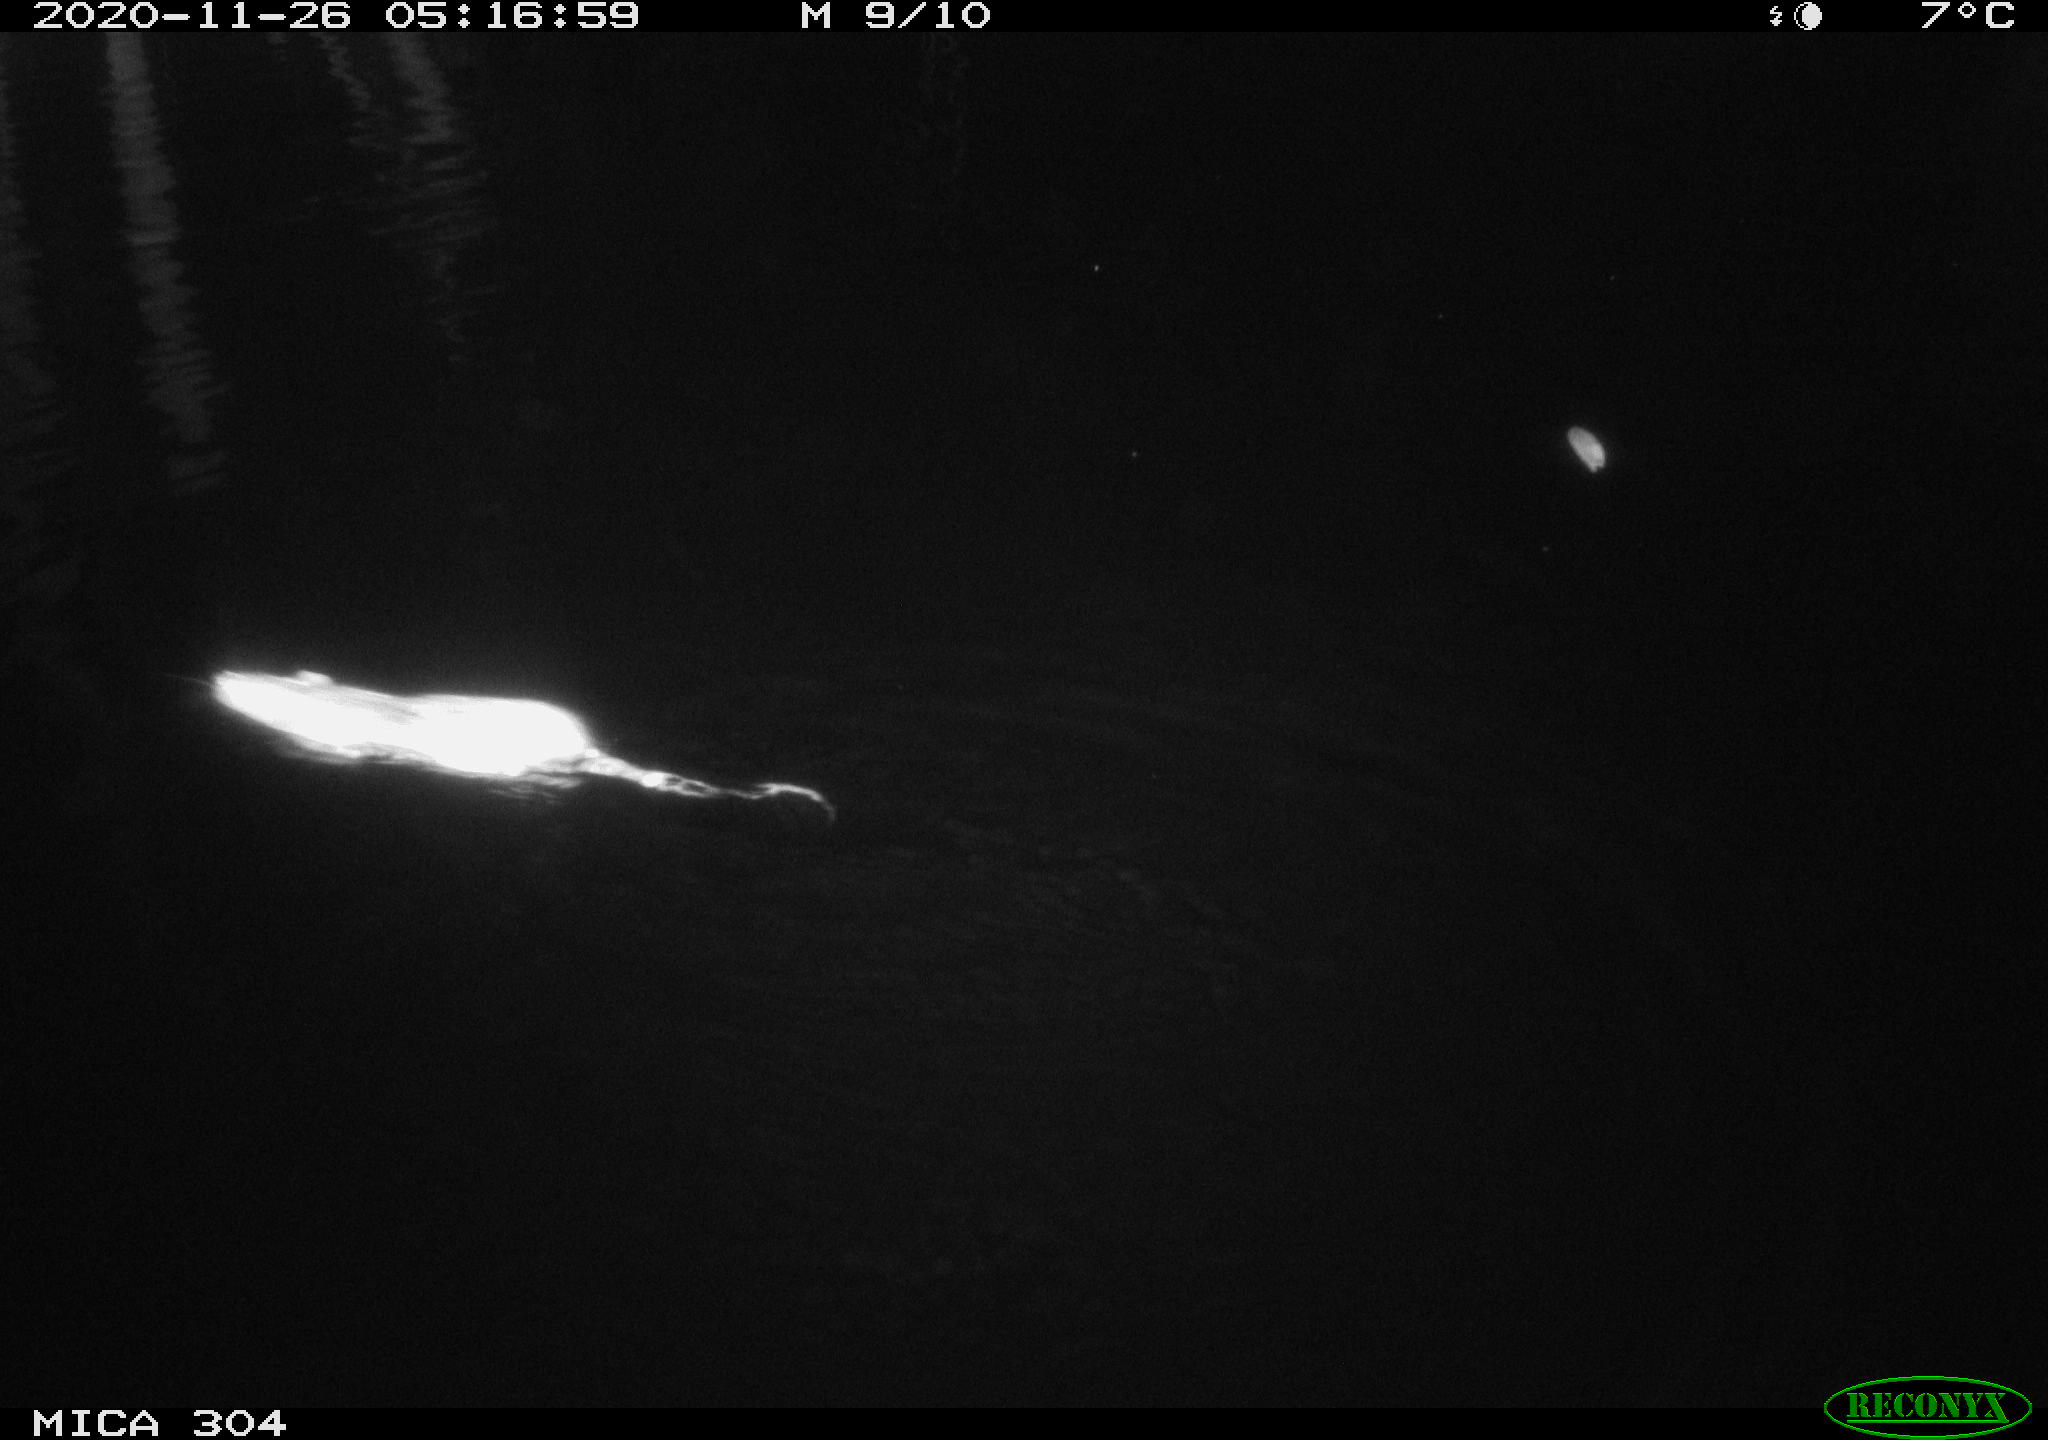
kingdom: Animalia
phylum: Chordata
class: Mammalia
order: Rodentia
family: Muridae
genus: Rattus
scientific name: Rattus norvegicus
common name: Brown rat
